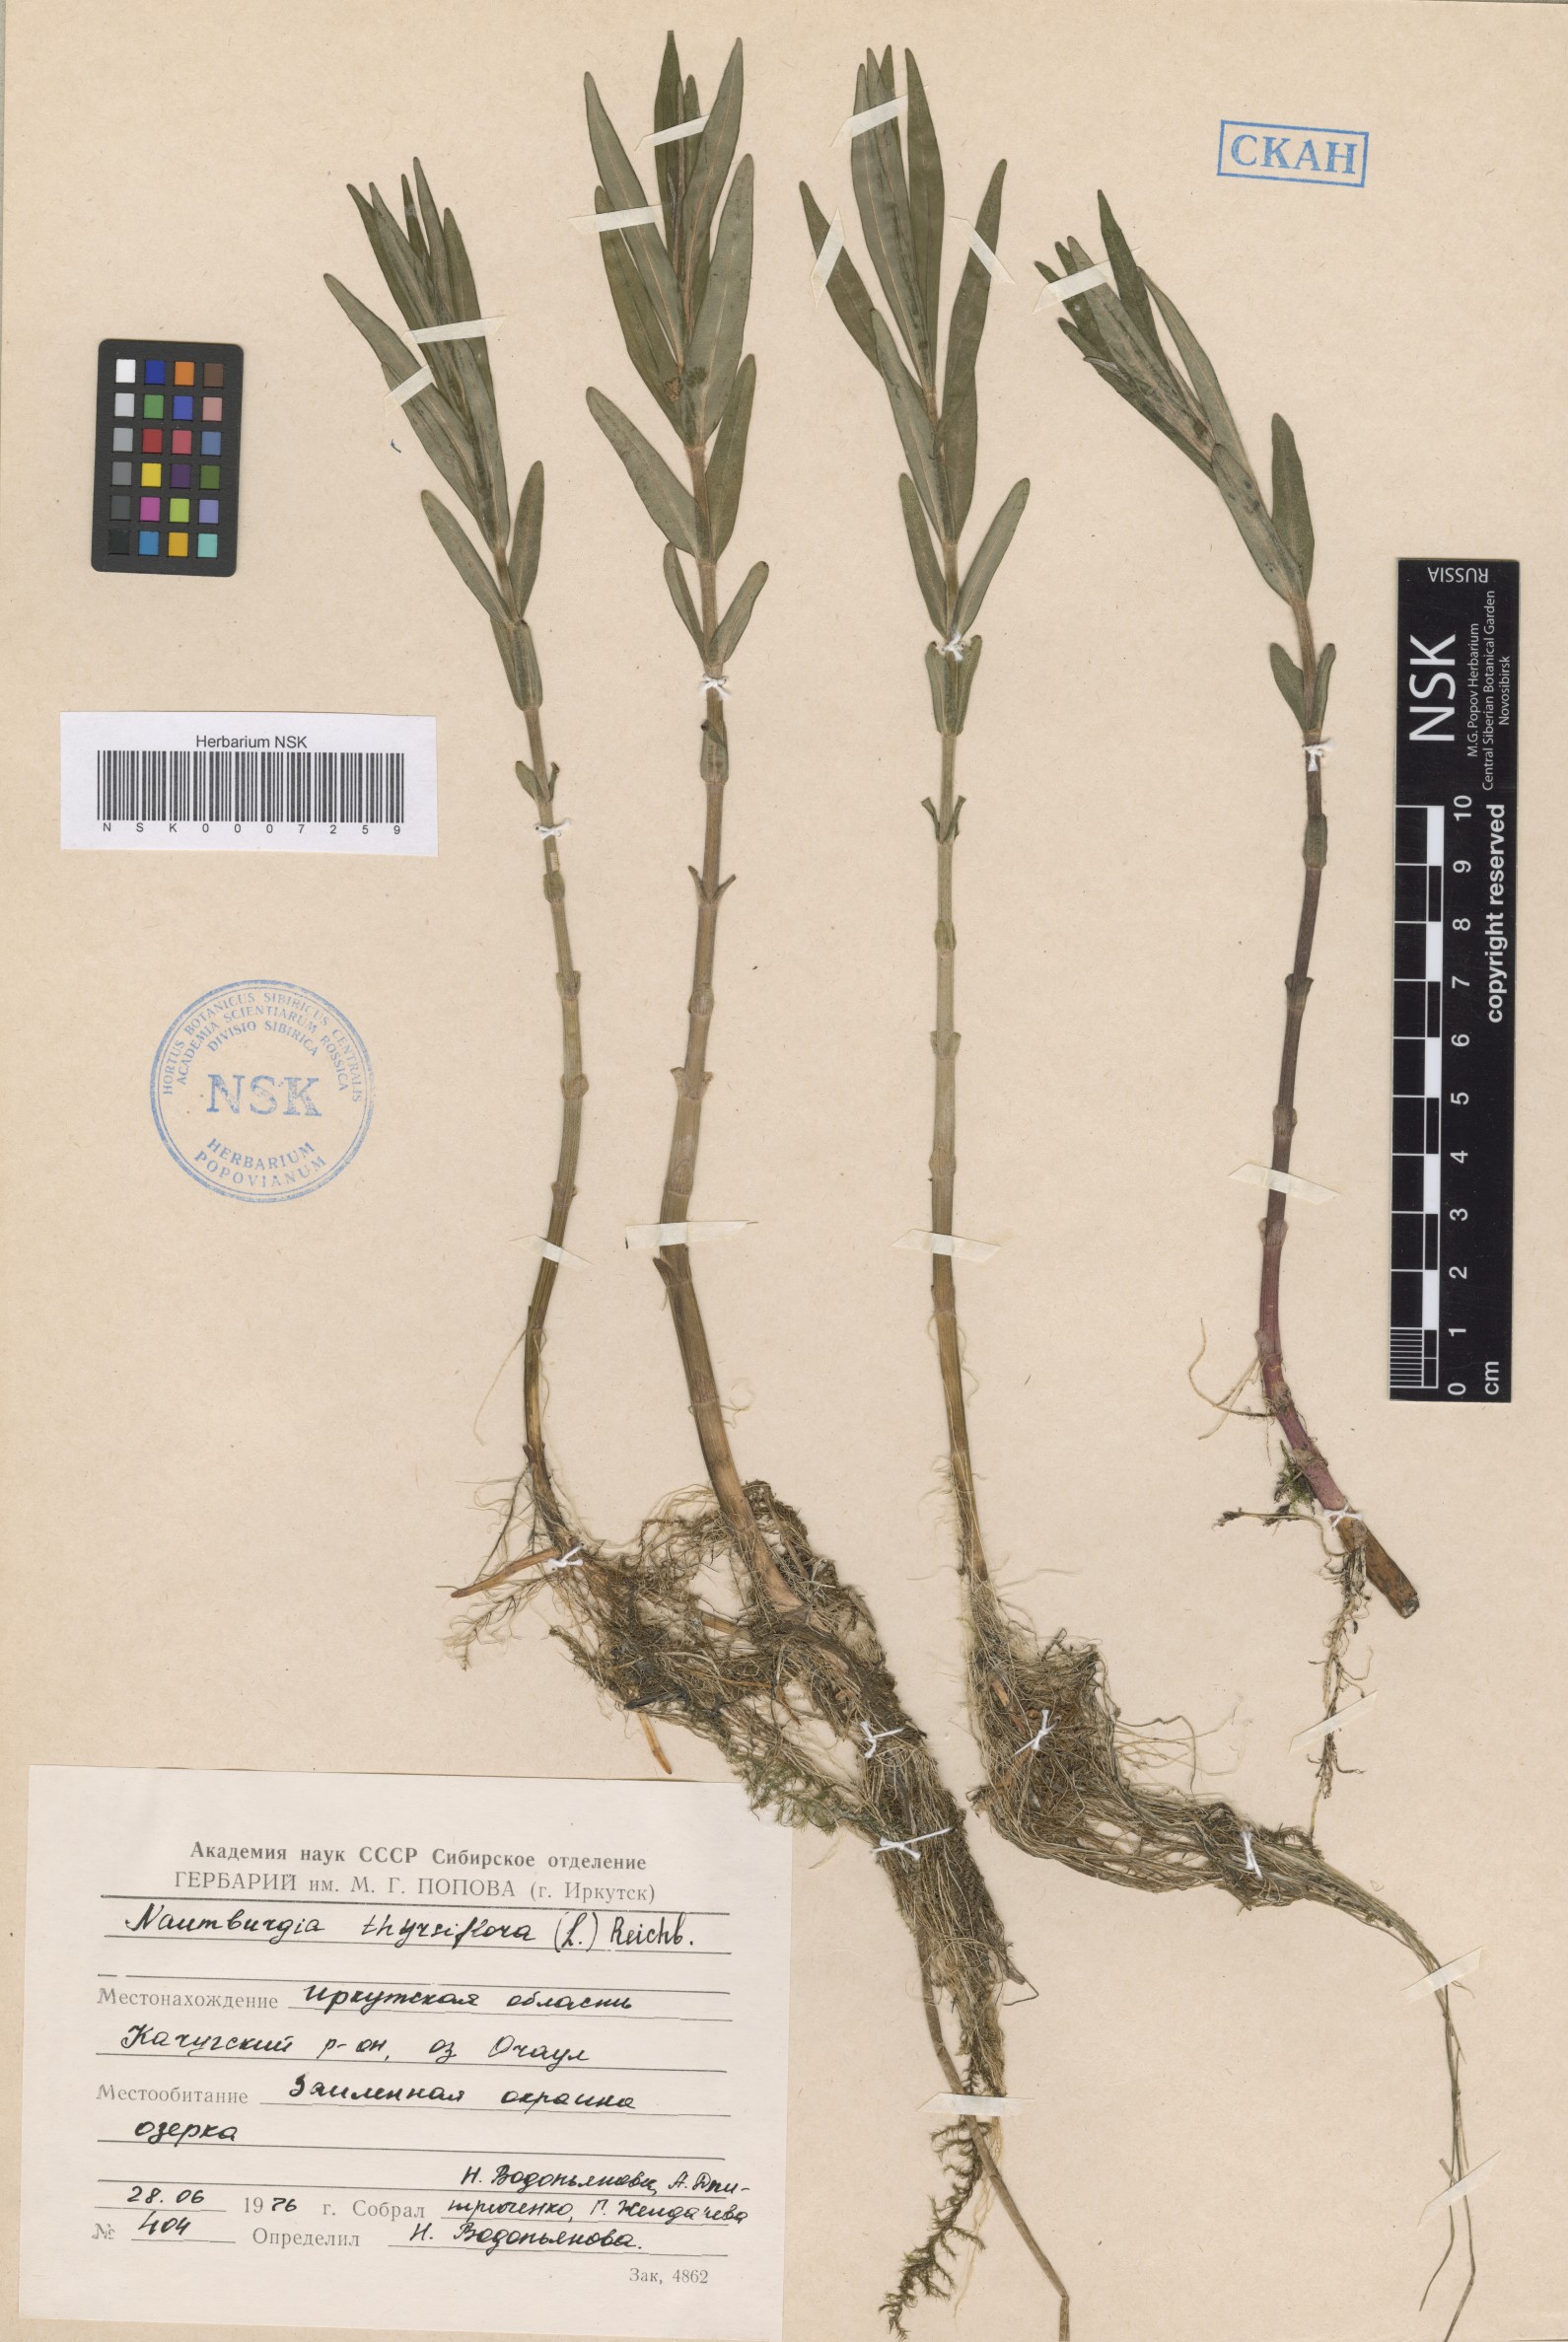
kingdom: Plantae
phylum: Tracheophyta
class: Magnoliopsida
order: Ericales
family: Primulaceae
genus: Lysimachia
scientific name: Lysimachia thyrsiflora
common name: Tufted loosestrife
